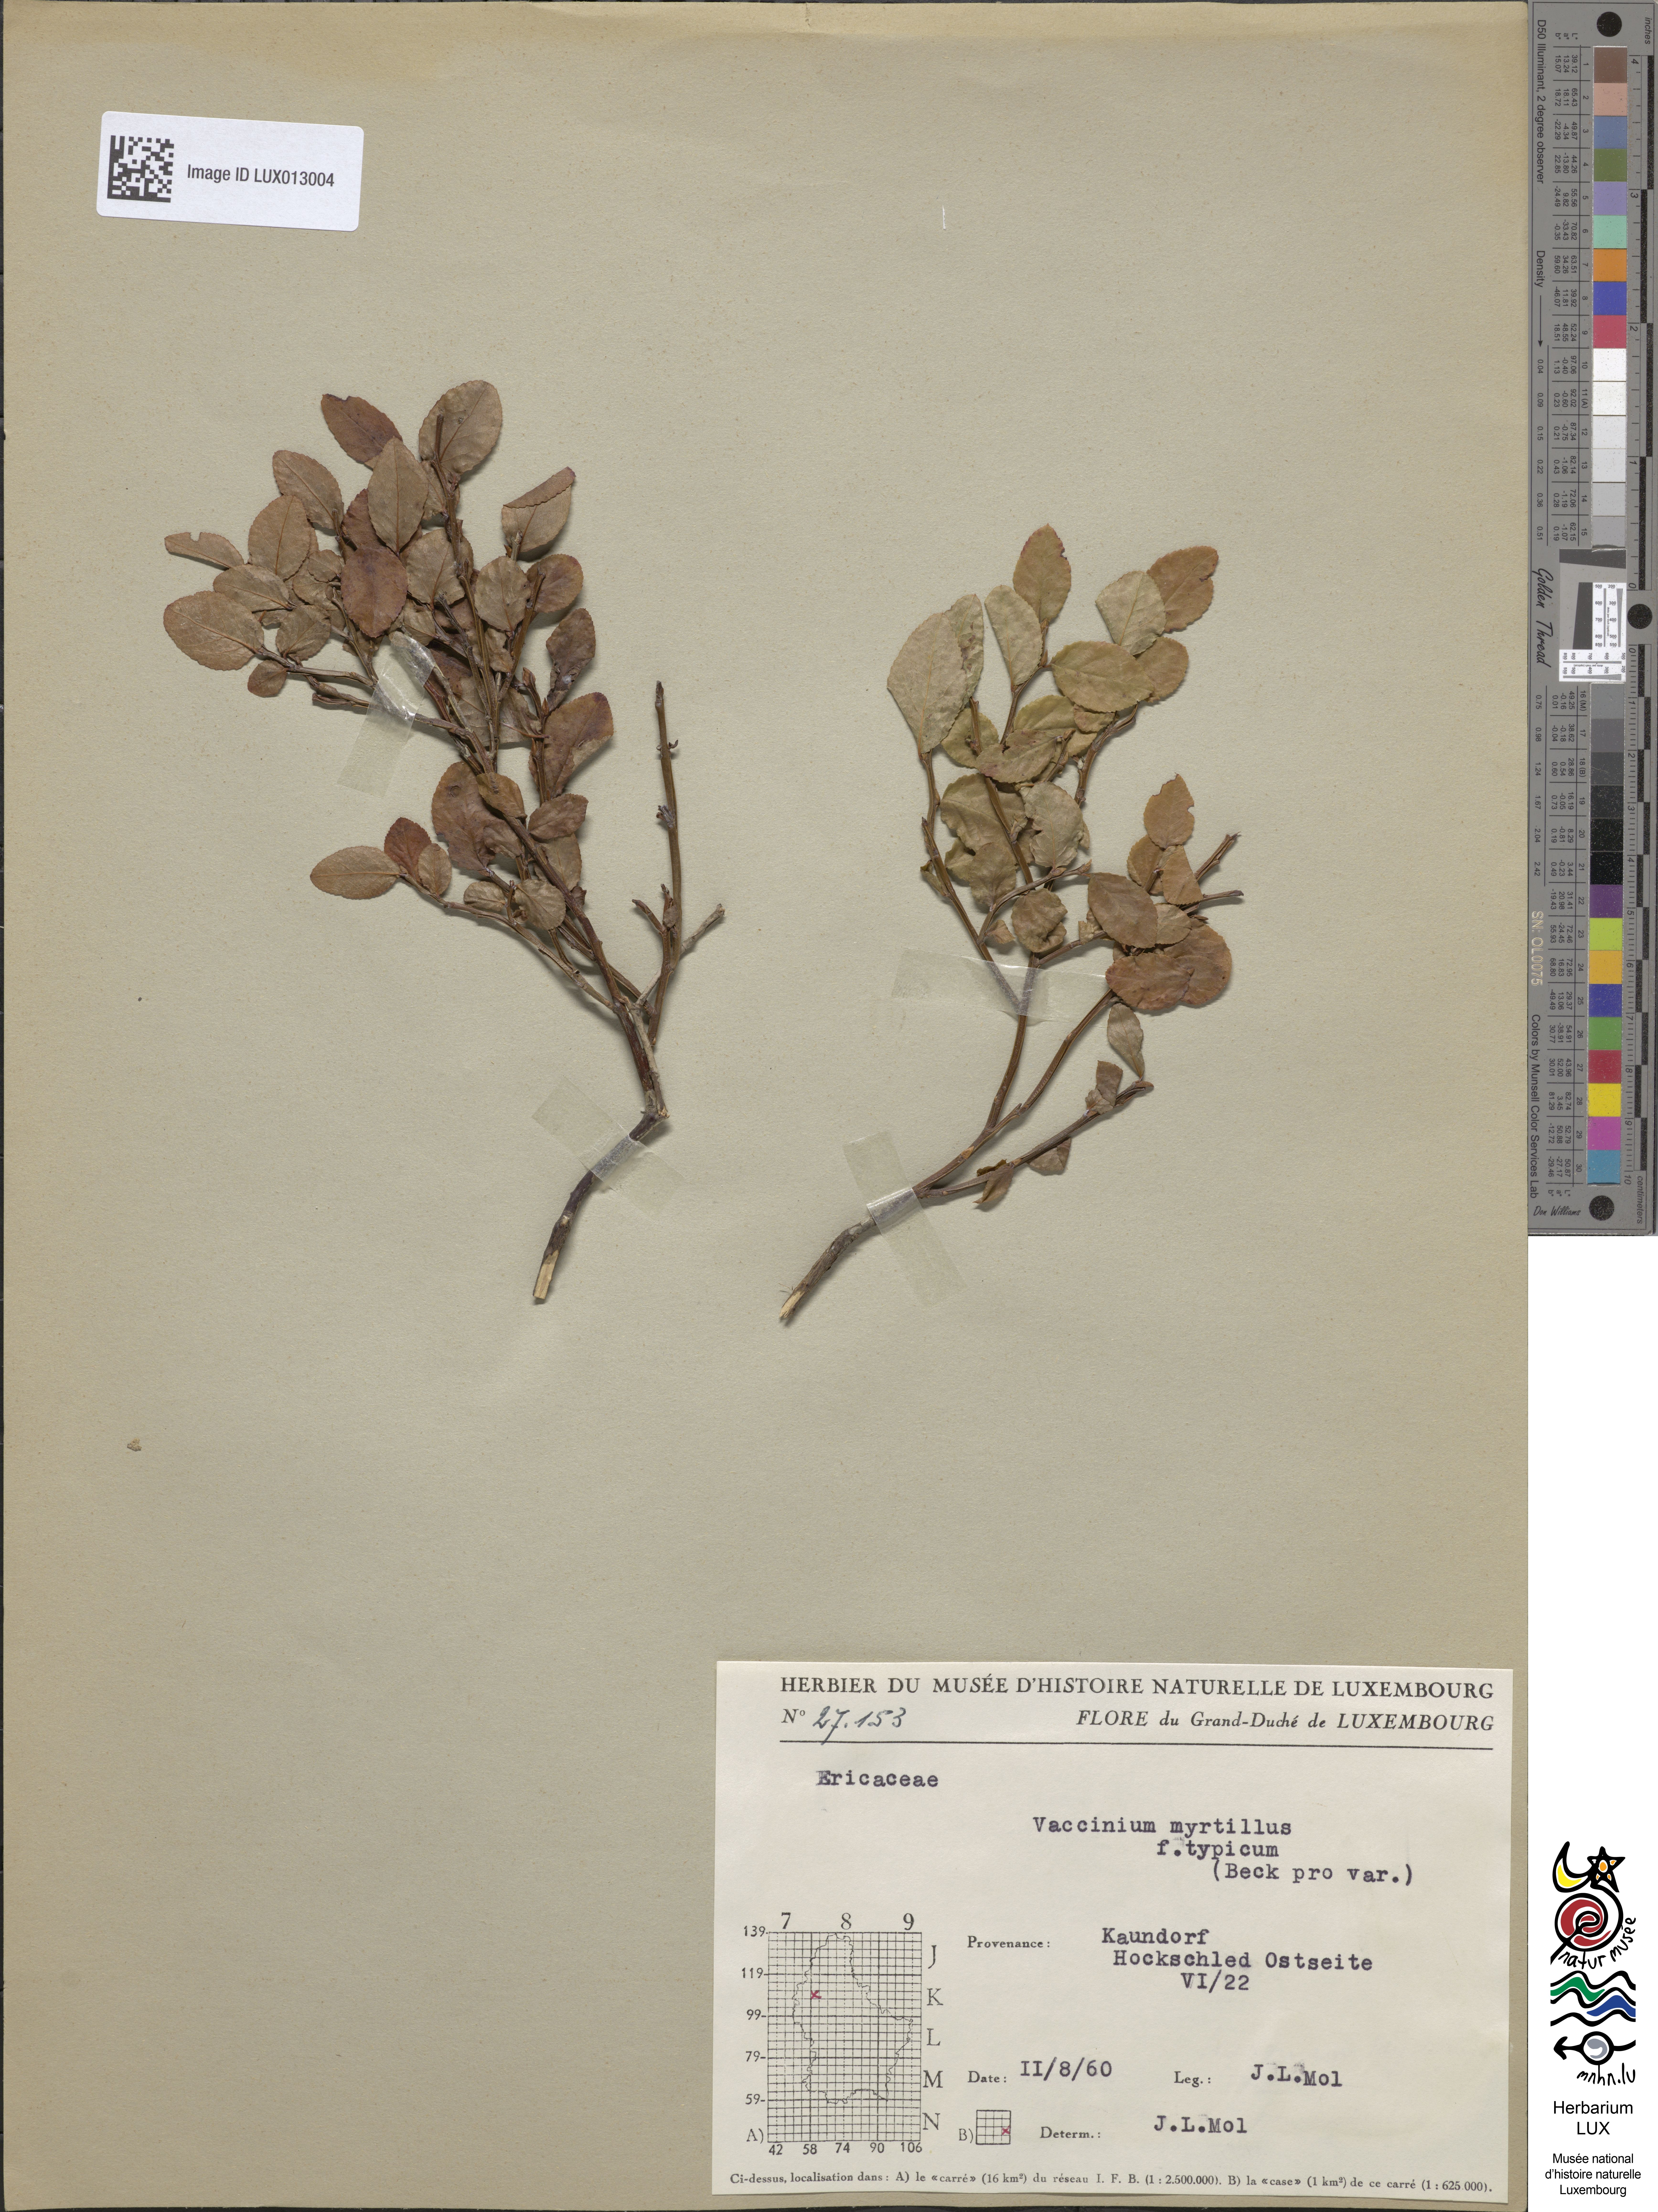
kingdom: Plantae
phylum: Tracheophyta
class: Magnoliopsida
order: Ericales
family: Ericaceae
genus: Vaccinium
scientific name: Vaccinium myrtillus
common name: Bilberry
